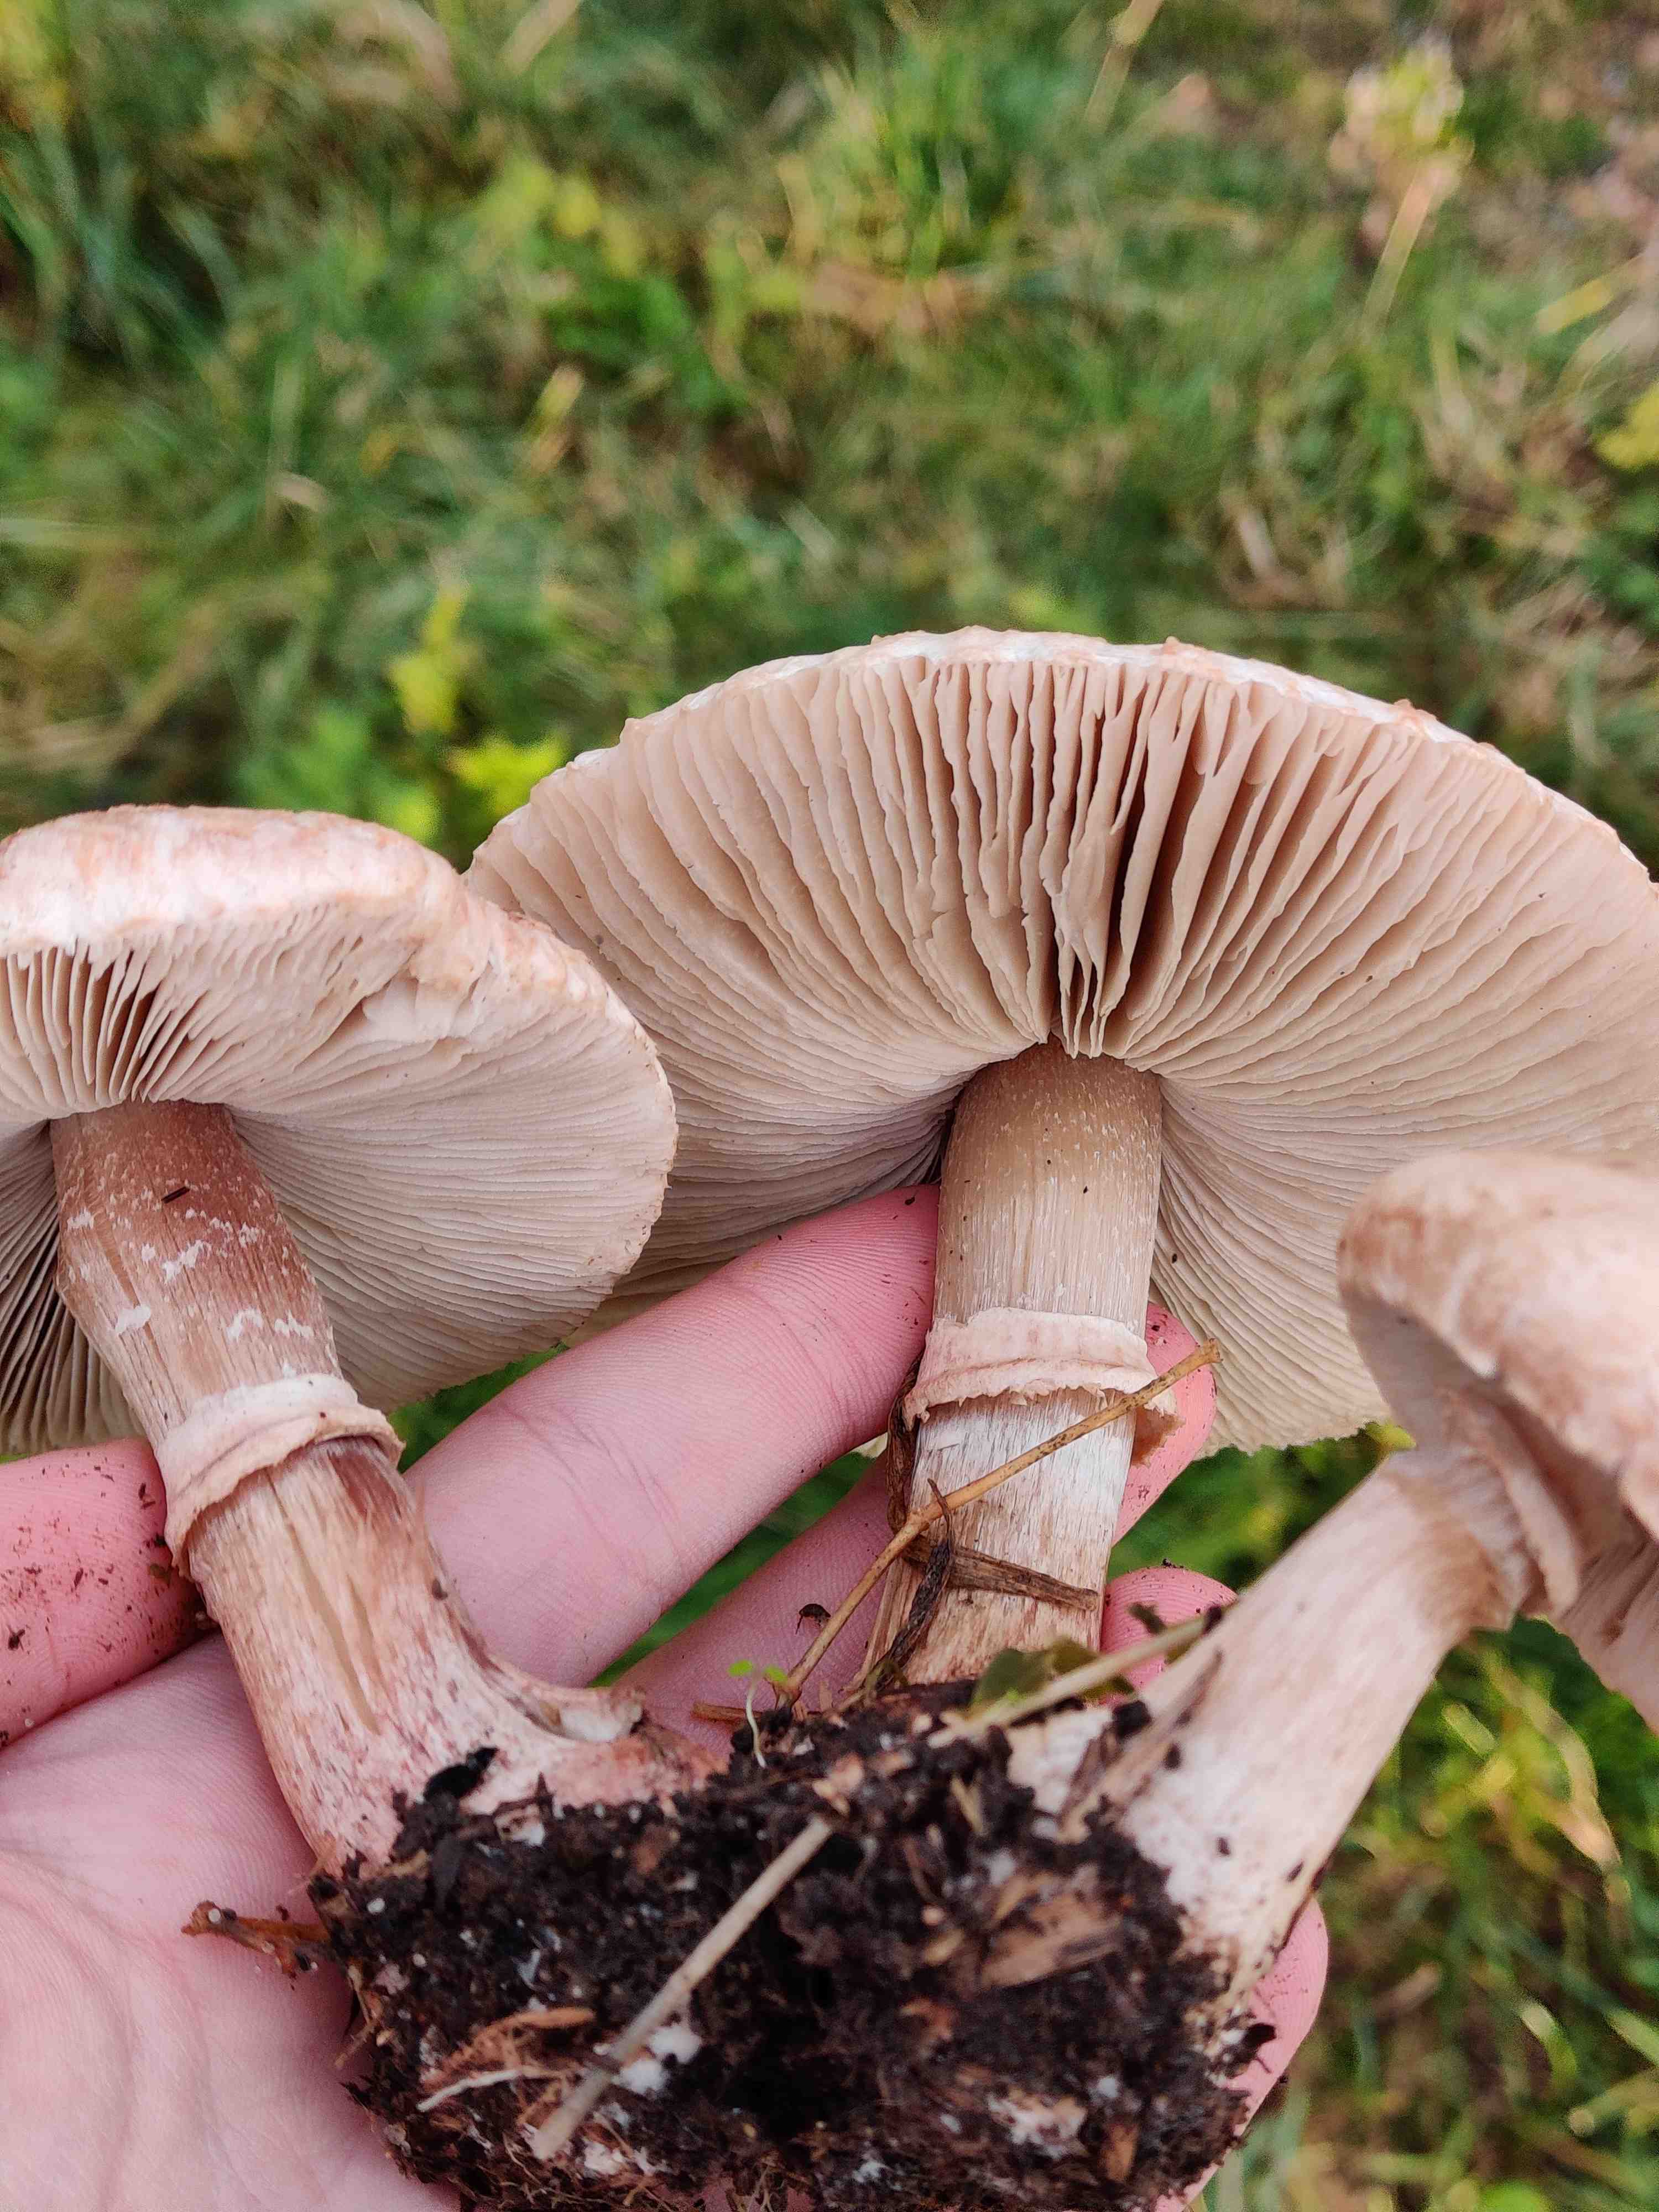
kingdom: Fungi
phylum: Basidiomycota
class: Agaricomycetes
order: Agaricales
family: Agaricaceae
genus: Macrolepiota
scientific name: Macrolepiota
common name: kæmpeparasolhat
